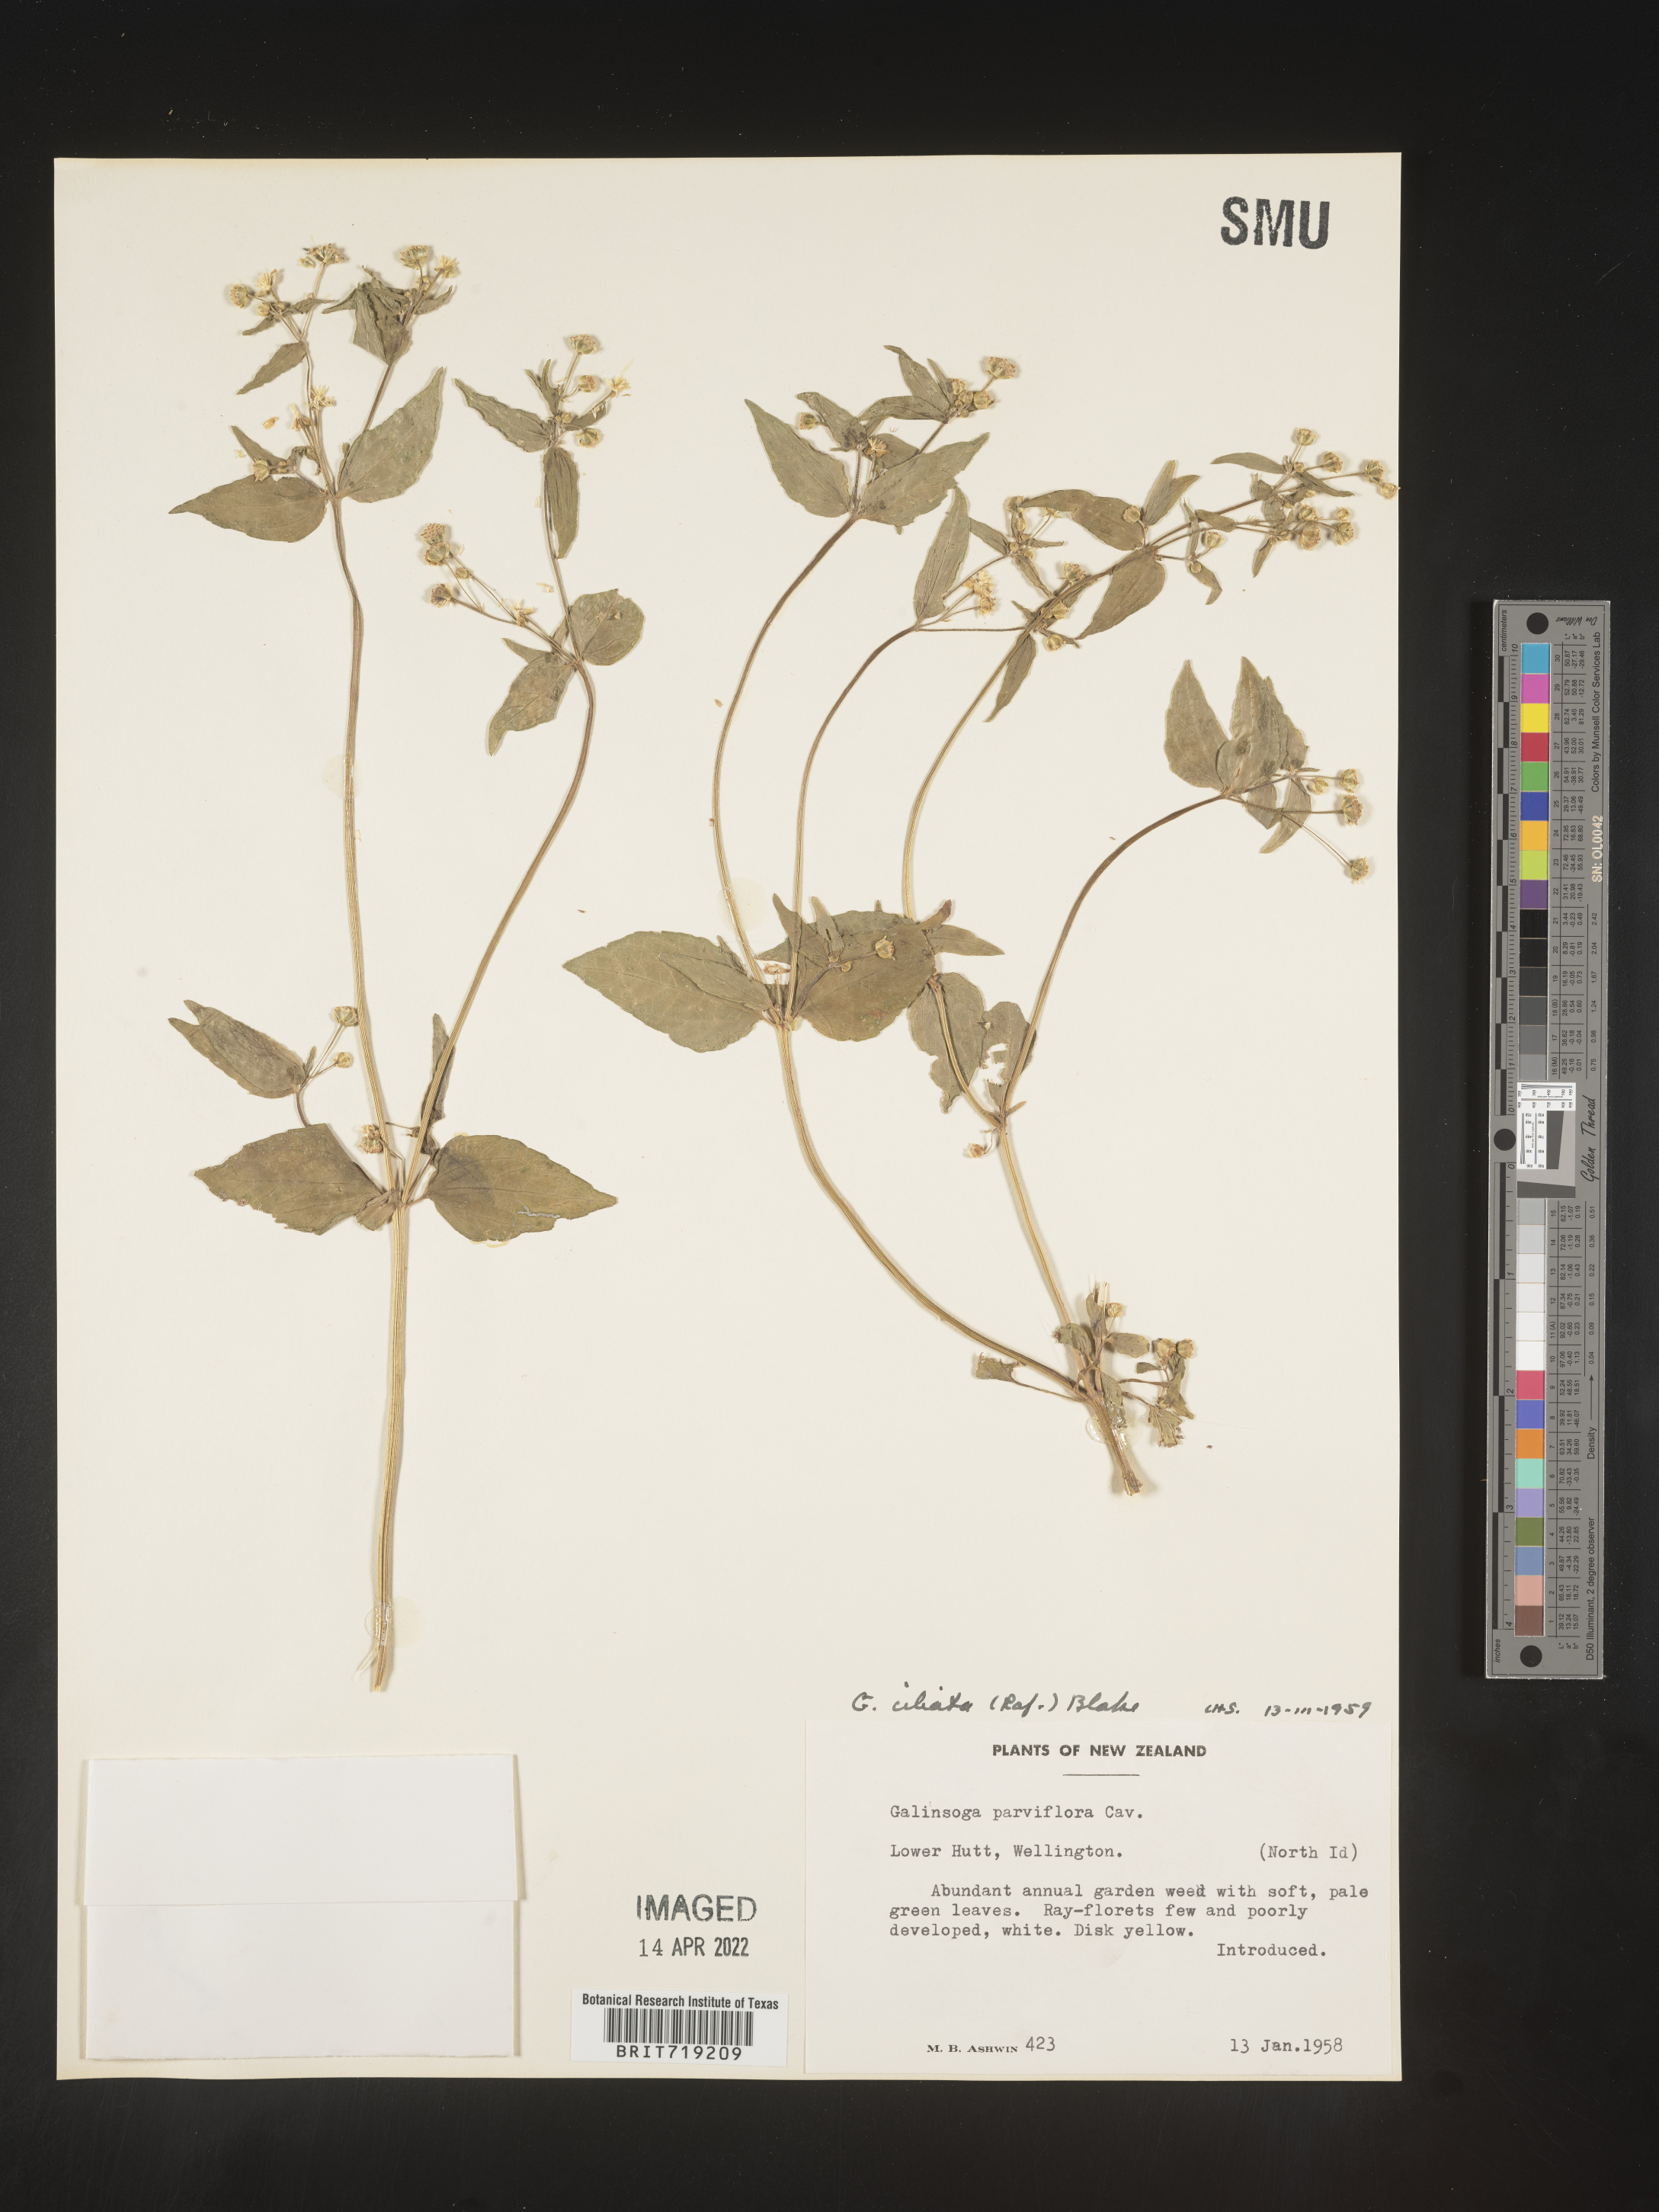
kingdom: Plantae
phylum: Tracheophyta
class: Magnoliopsida
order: Asterales
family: Asteraceae
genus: Galinsoga
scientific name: Galinsoga
